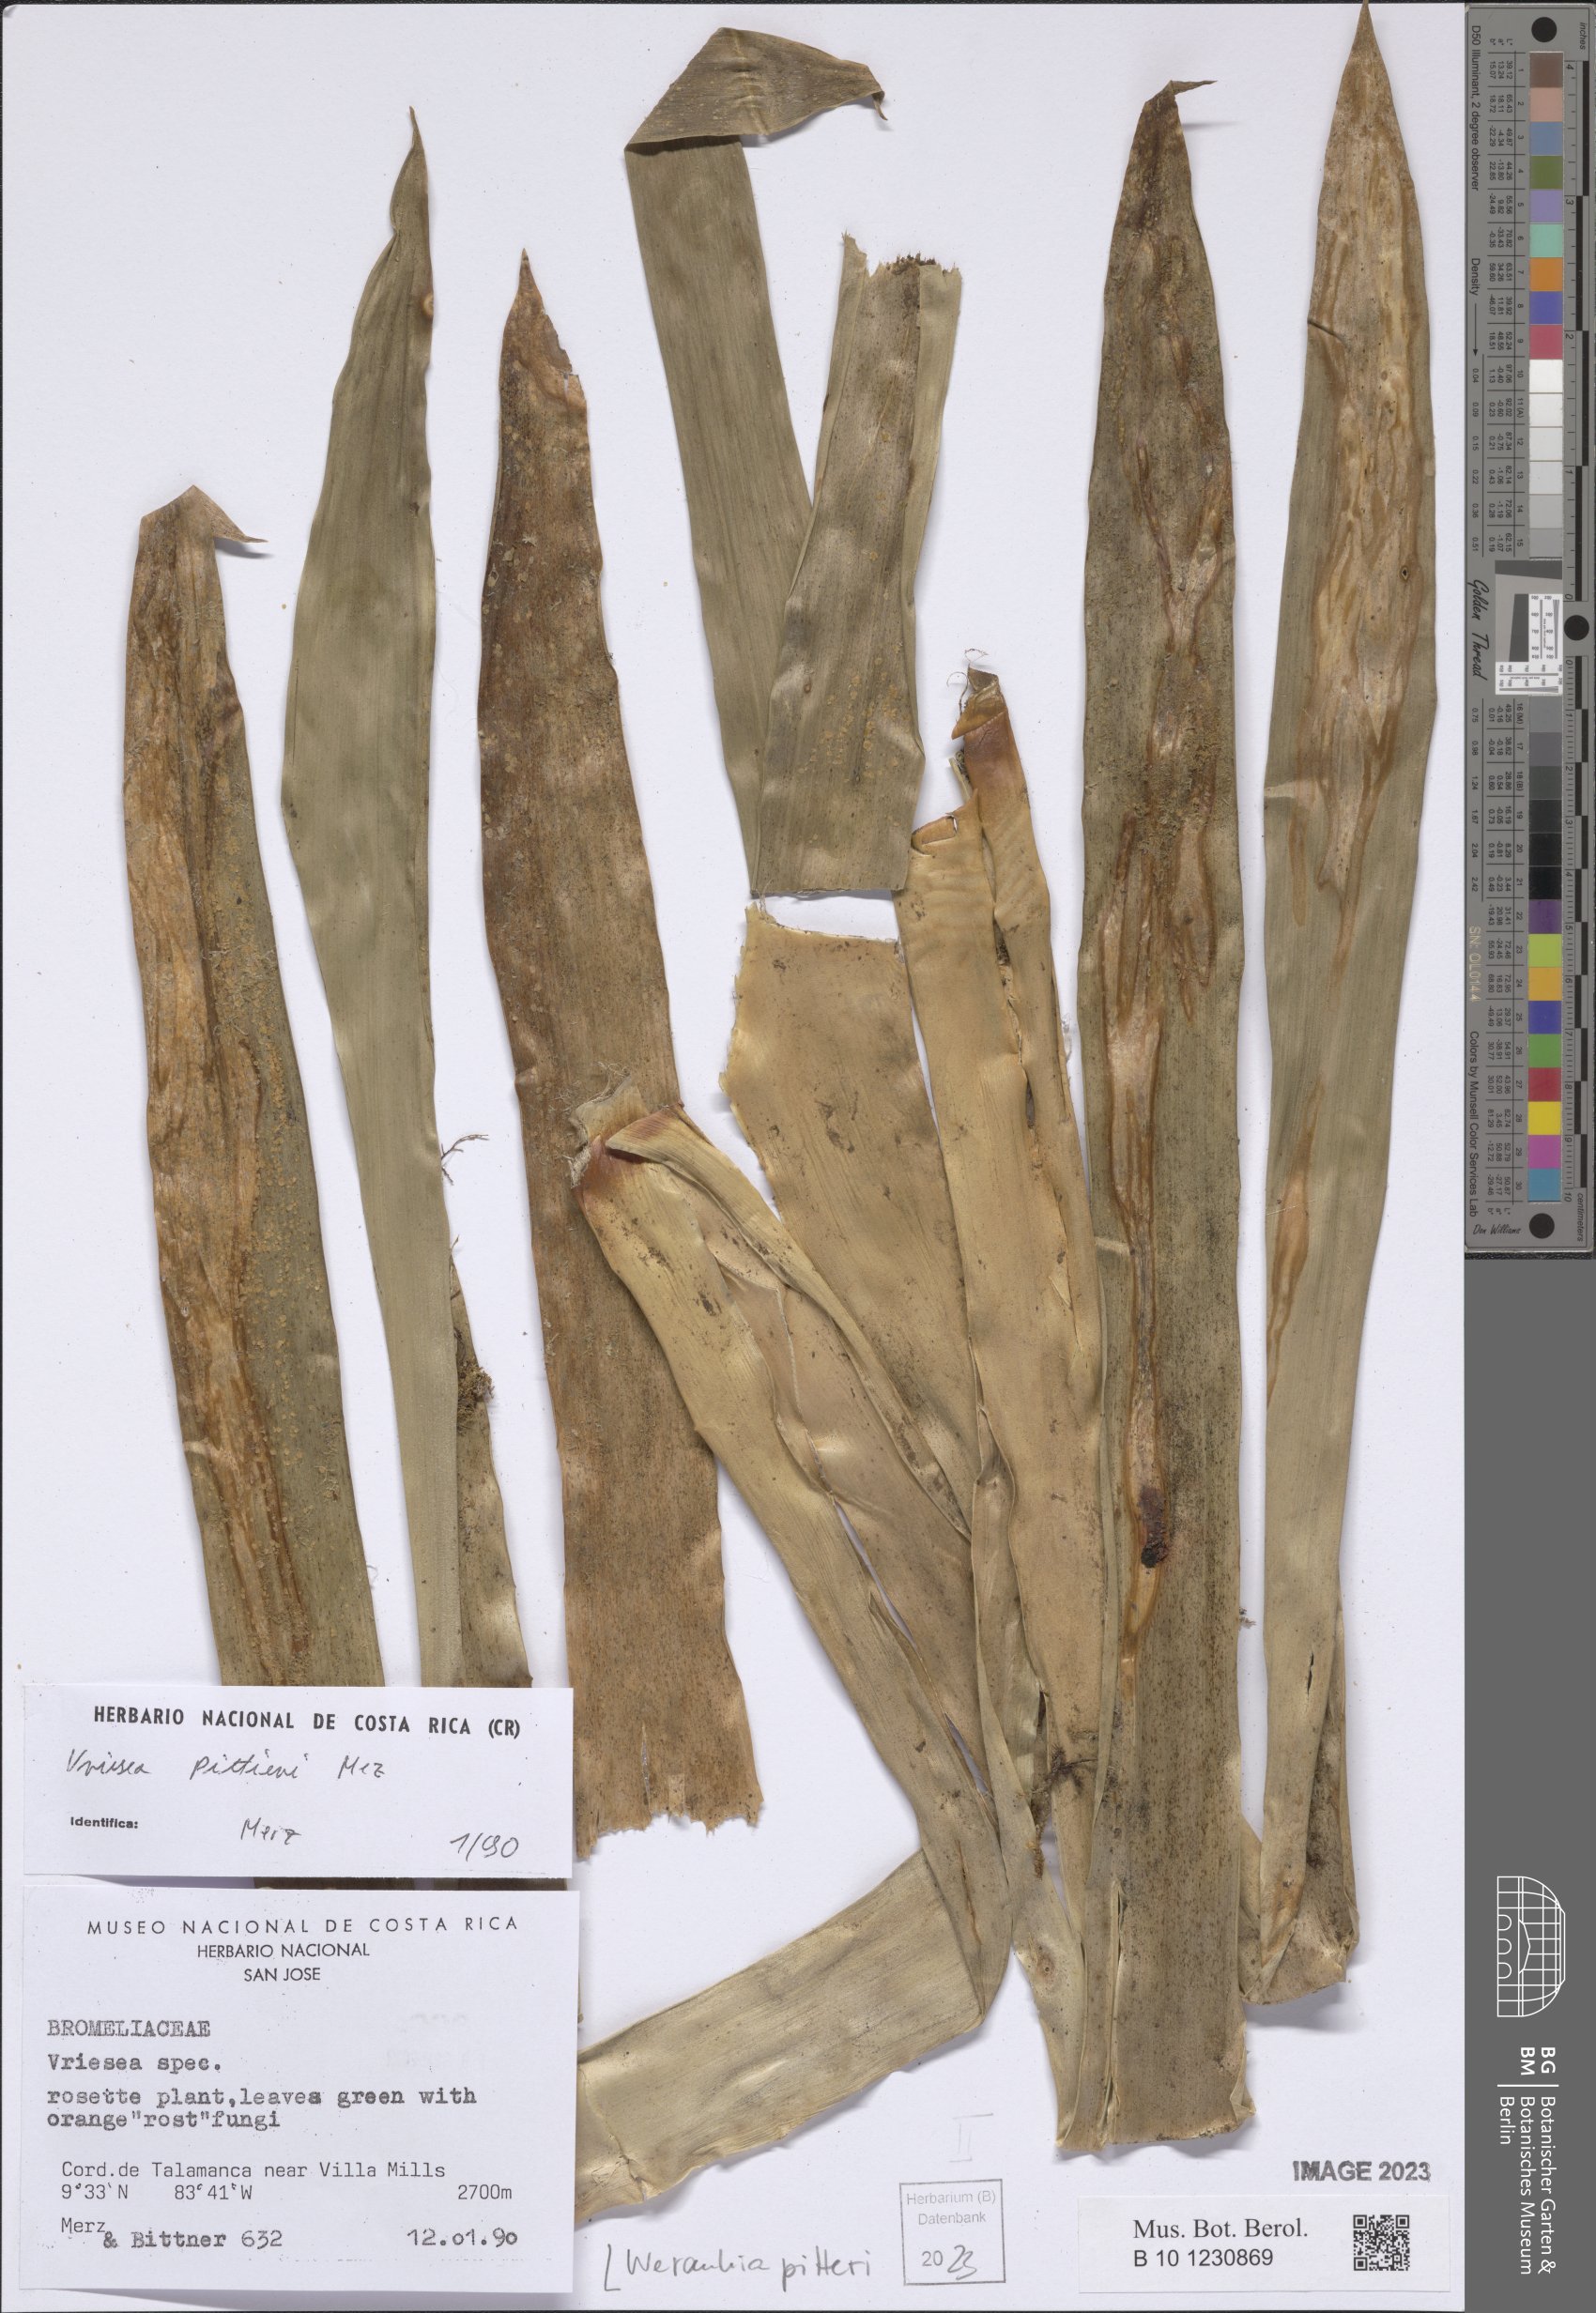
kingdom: Plantae
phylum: Tracheophyta
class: Liliopsida
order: Poales
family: Bromeliaceae
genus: Werauhia
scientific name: Werauhia pittieri
